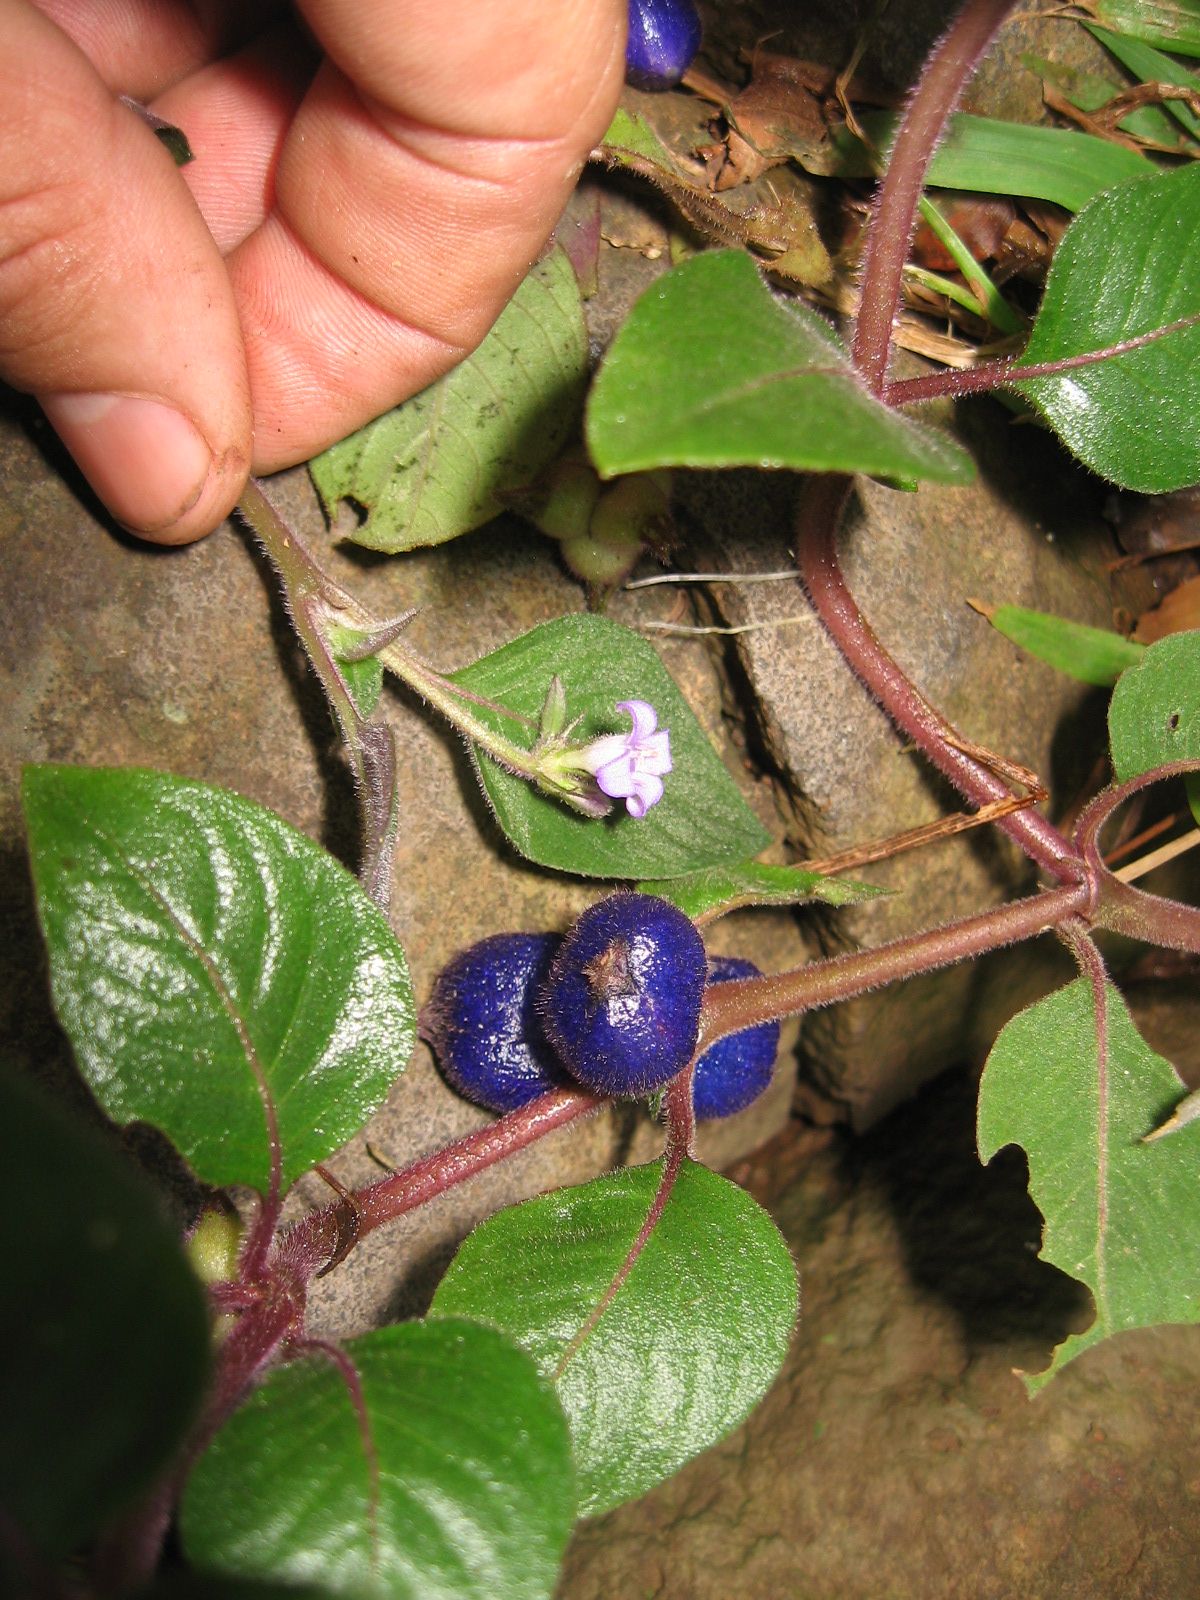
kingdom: Plantae
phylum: Tracheophyta
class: Magnoliopsida
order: Gentianales
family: Rubiaceae
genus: Coccocypselum
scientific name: Coccocypselum hirsutum
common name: Yerba de guava
